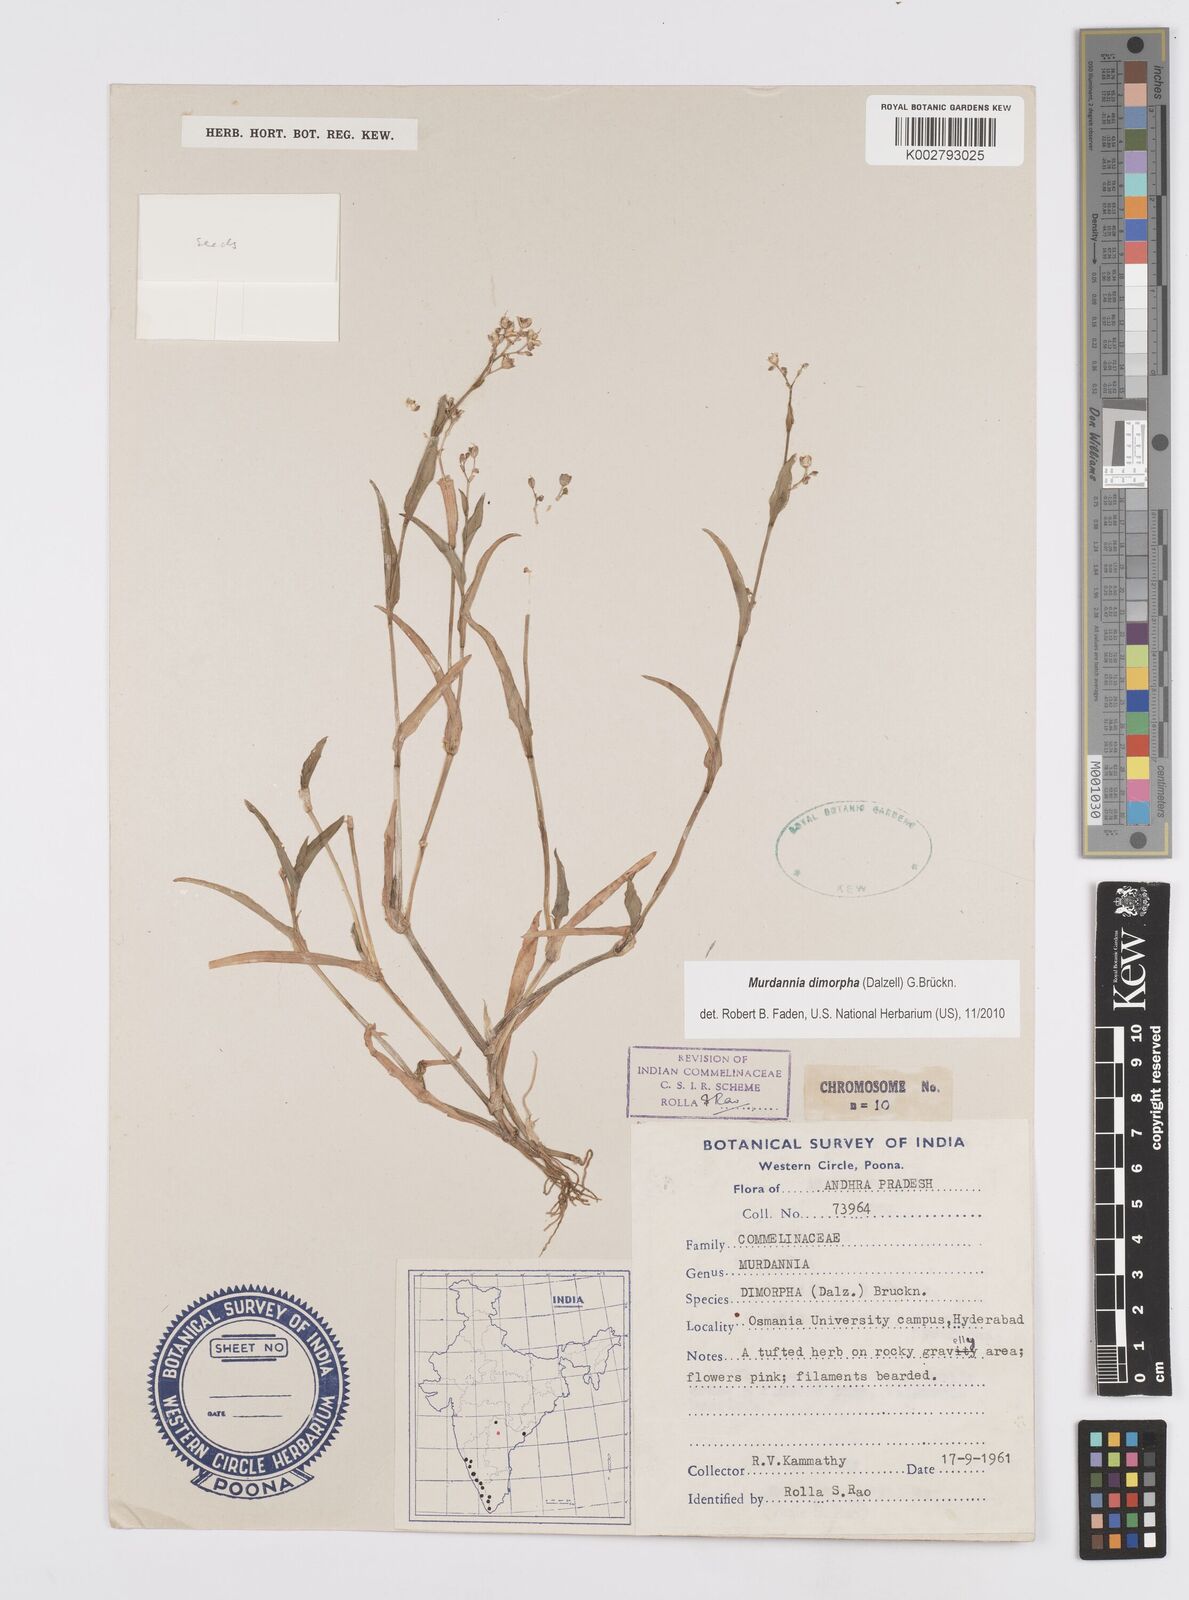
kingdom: Plantae
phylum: Tracheophyta
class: Liliopsida
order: Commelinales
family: Commelinaceae
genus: Murdannia
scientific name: Murdannia dimorpha
